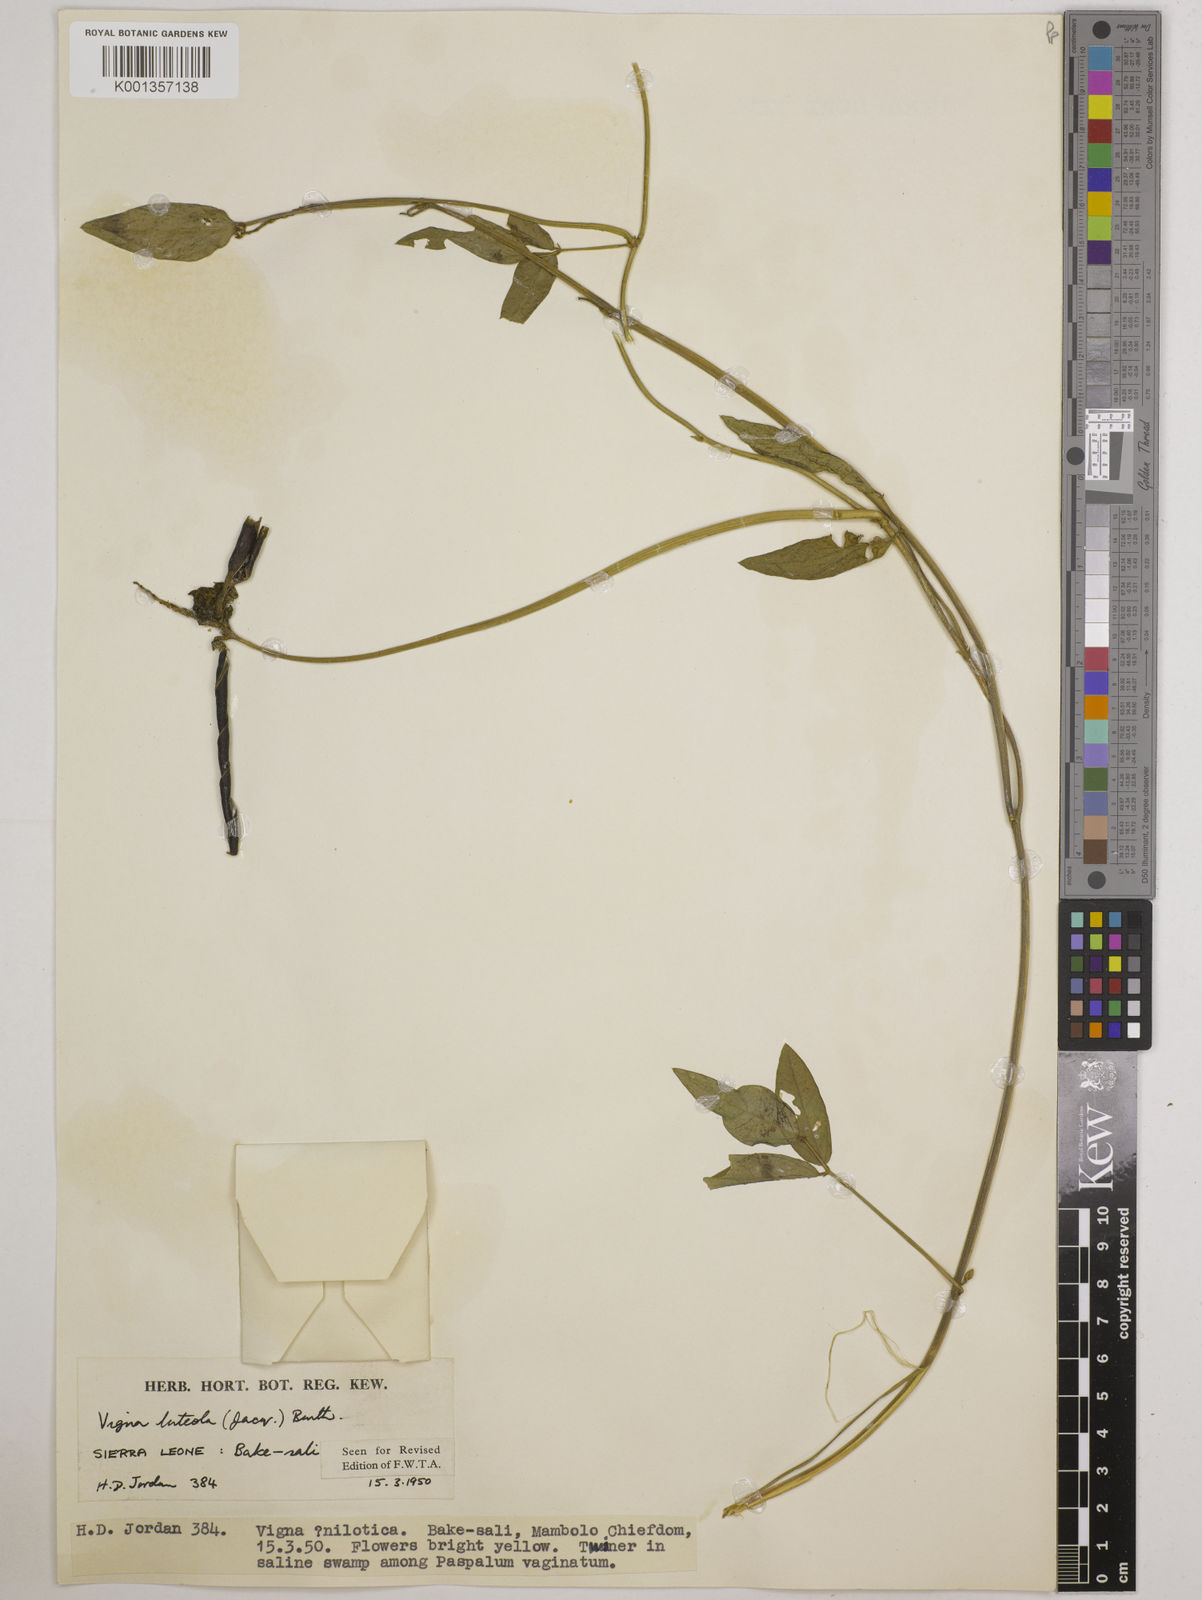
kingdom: Plantae
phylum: Tracheophyta
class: Magnoliopsida
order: Fabales
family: Fabaceae
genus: Vigna
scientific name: Vigna luteola
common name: Hairypod cowpea
